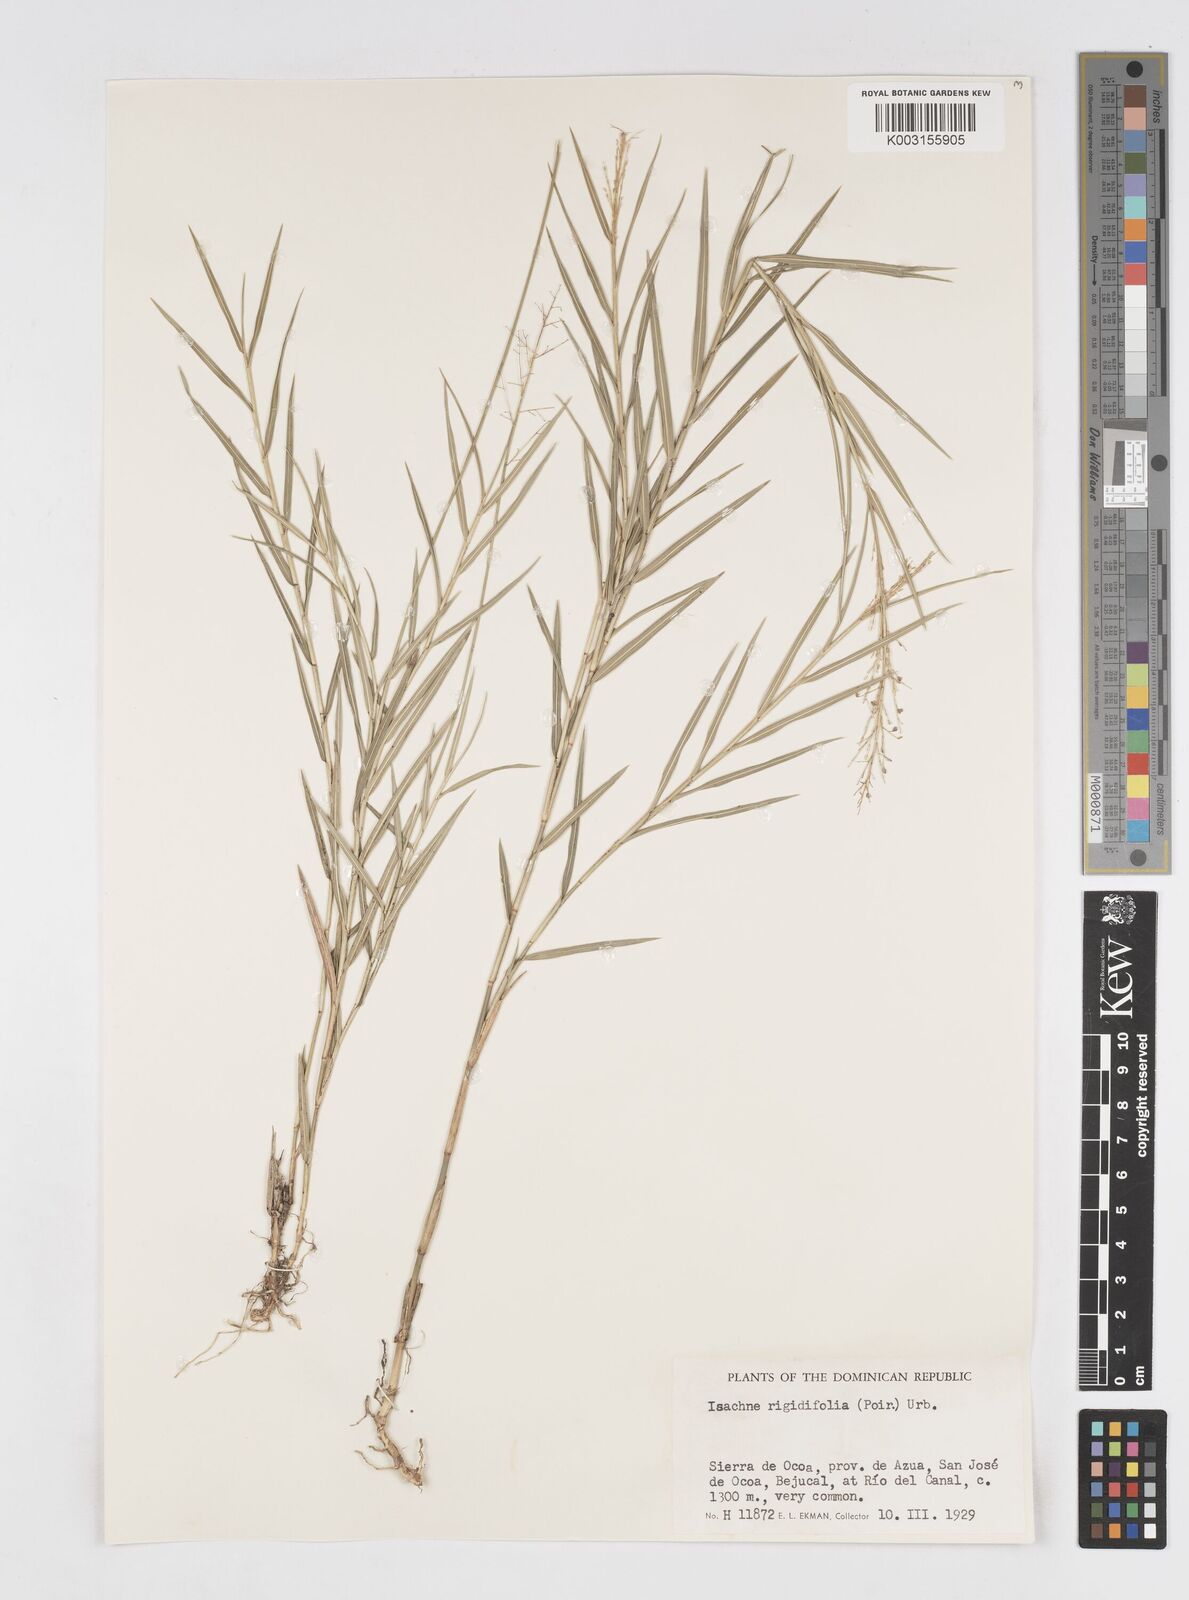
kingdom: Plantae
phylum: Tracheophyta
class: Liliopsida
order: Poales
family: Poaceae
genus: Isachne
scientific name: Isachne rigidifolia
